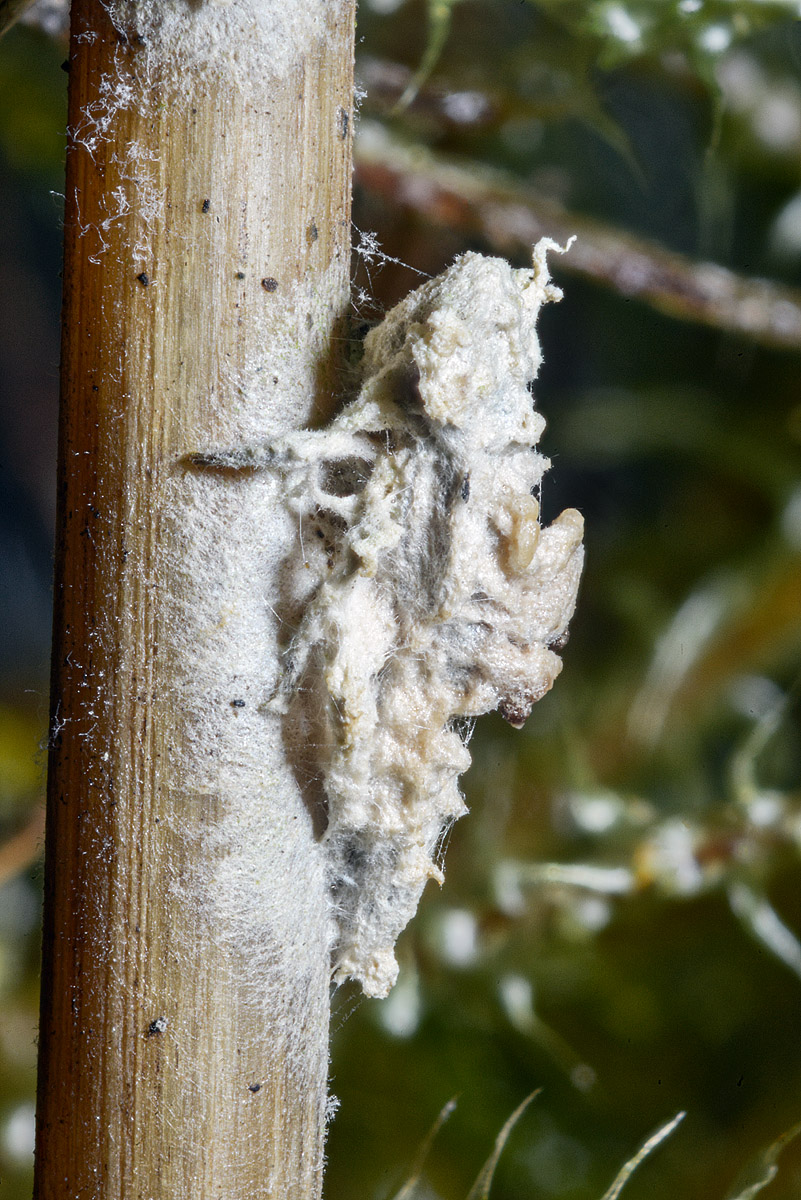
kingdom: Fungi
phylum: Ascomycota
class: Sordariomycetes
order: Hypocreales
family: Ophiocordycipitaceae
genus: Ophiocordyceps
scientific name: Ophiocordyceps
